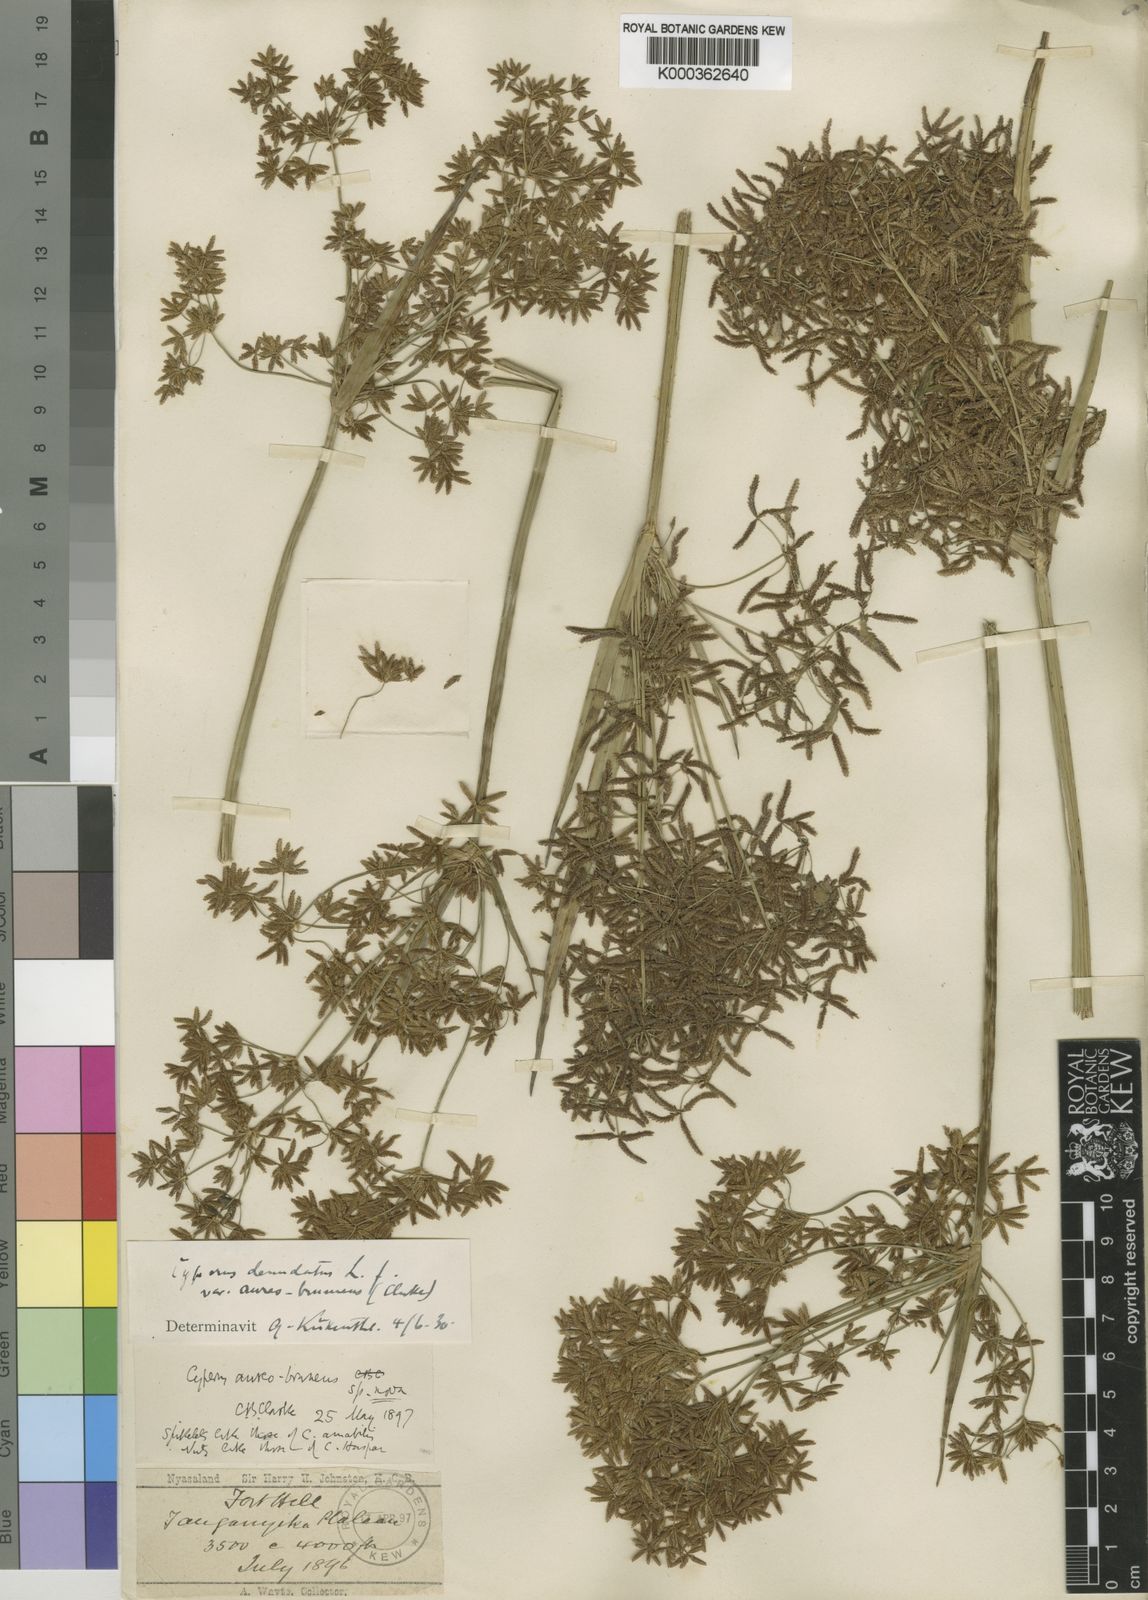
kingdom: Plantae
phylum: Tracheophyta
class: Liliopsida
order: Poales
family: Cyperaceae
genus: Cyperus
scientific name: Cyperus aureobrunneus
